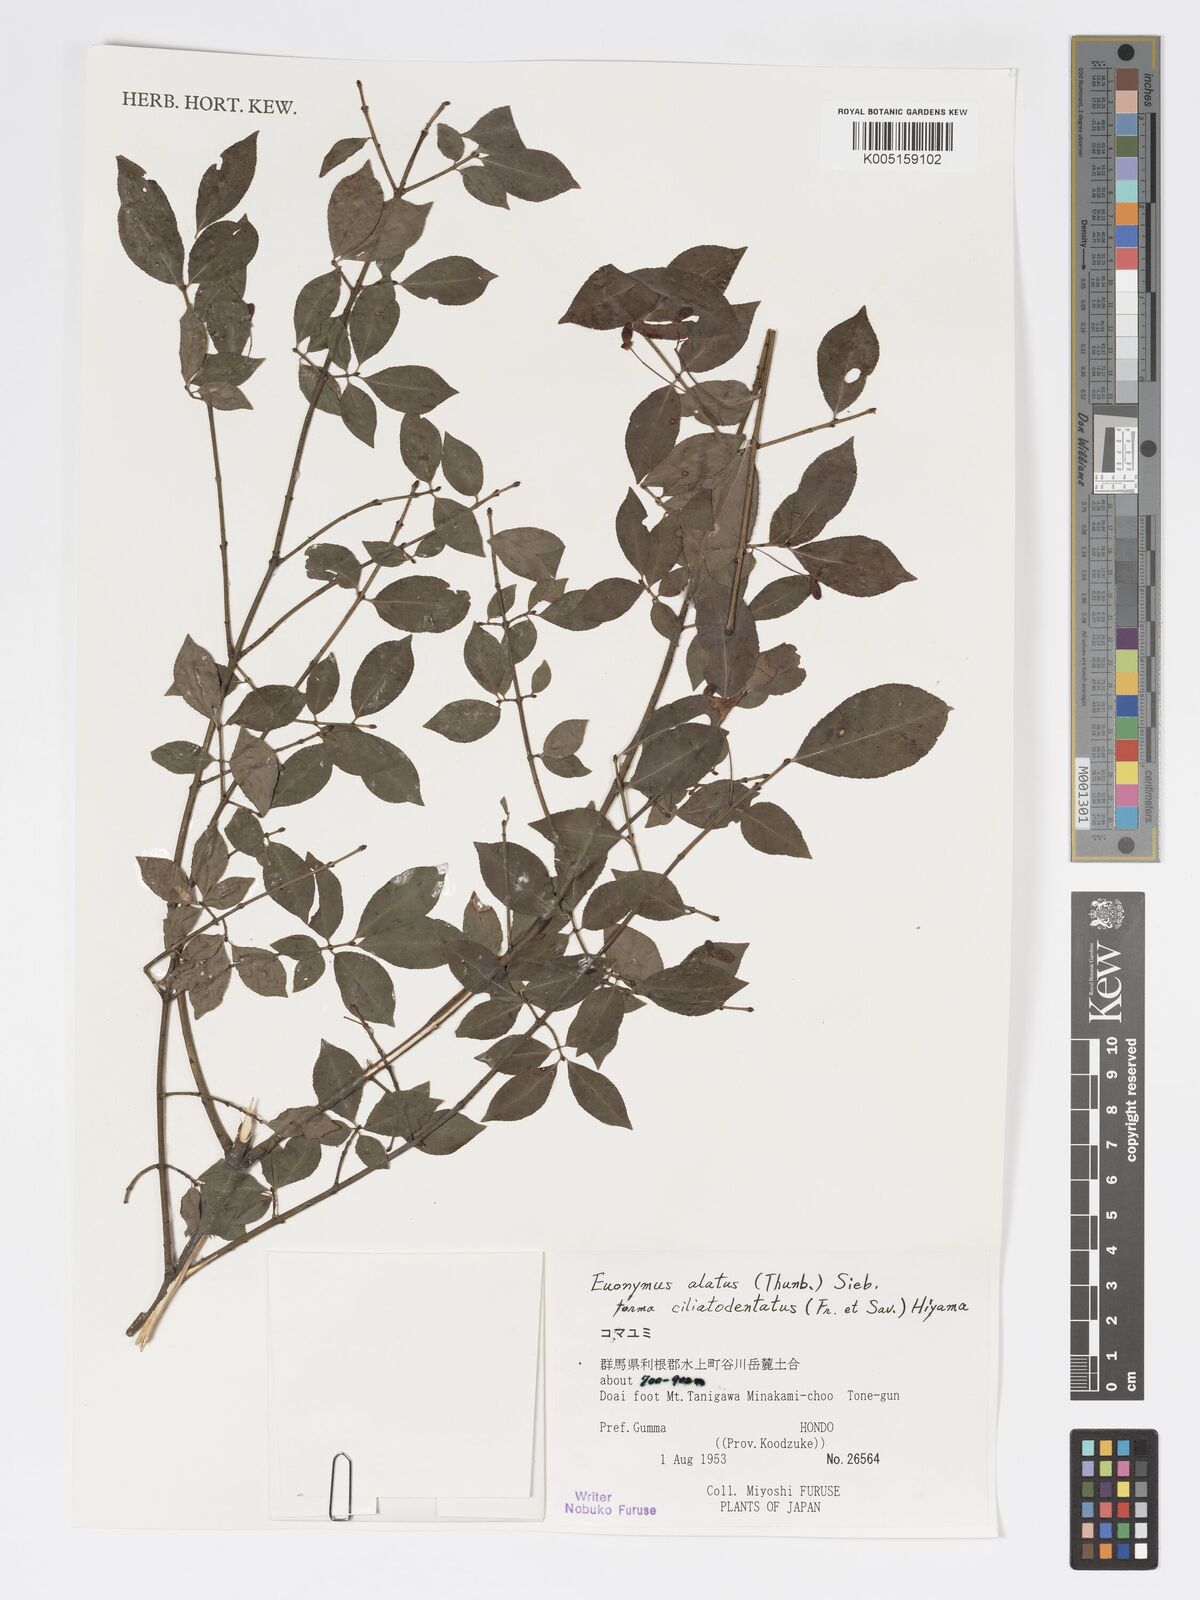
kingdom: Plantae
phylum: Tracheophyta
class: Magnoliopsida
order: Celastrales
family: Celastraceae
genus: Euonymus
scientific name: Euonymus
